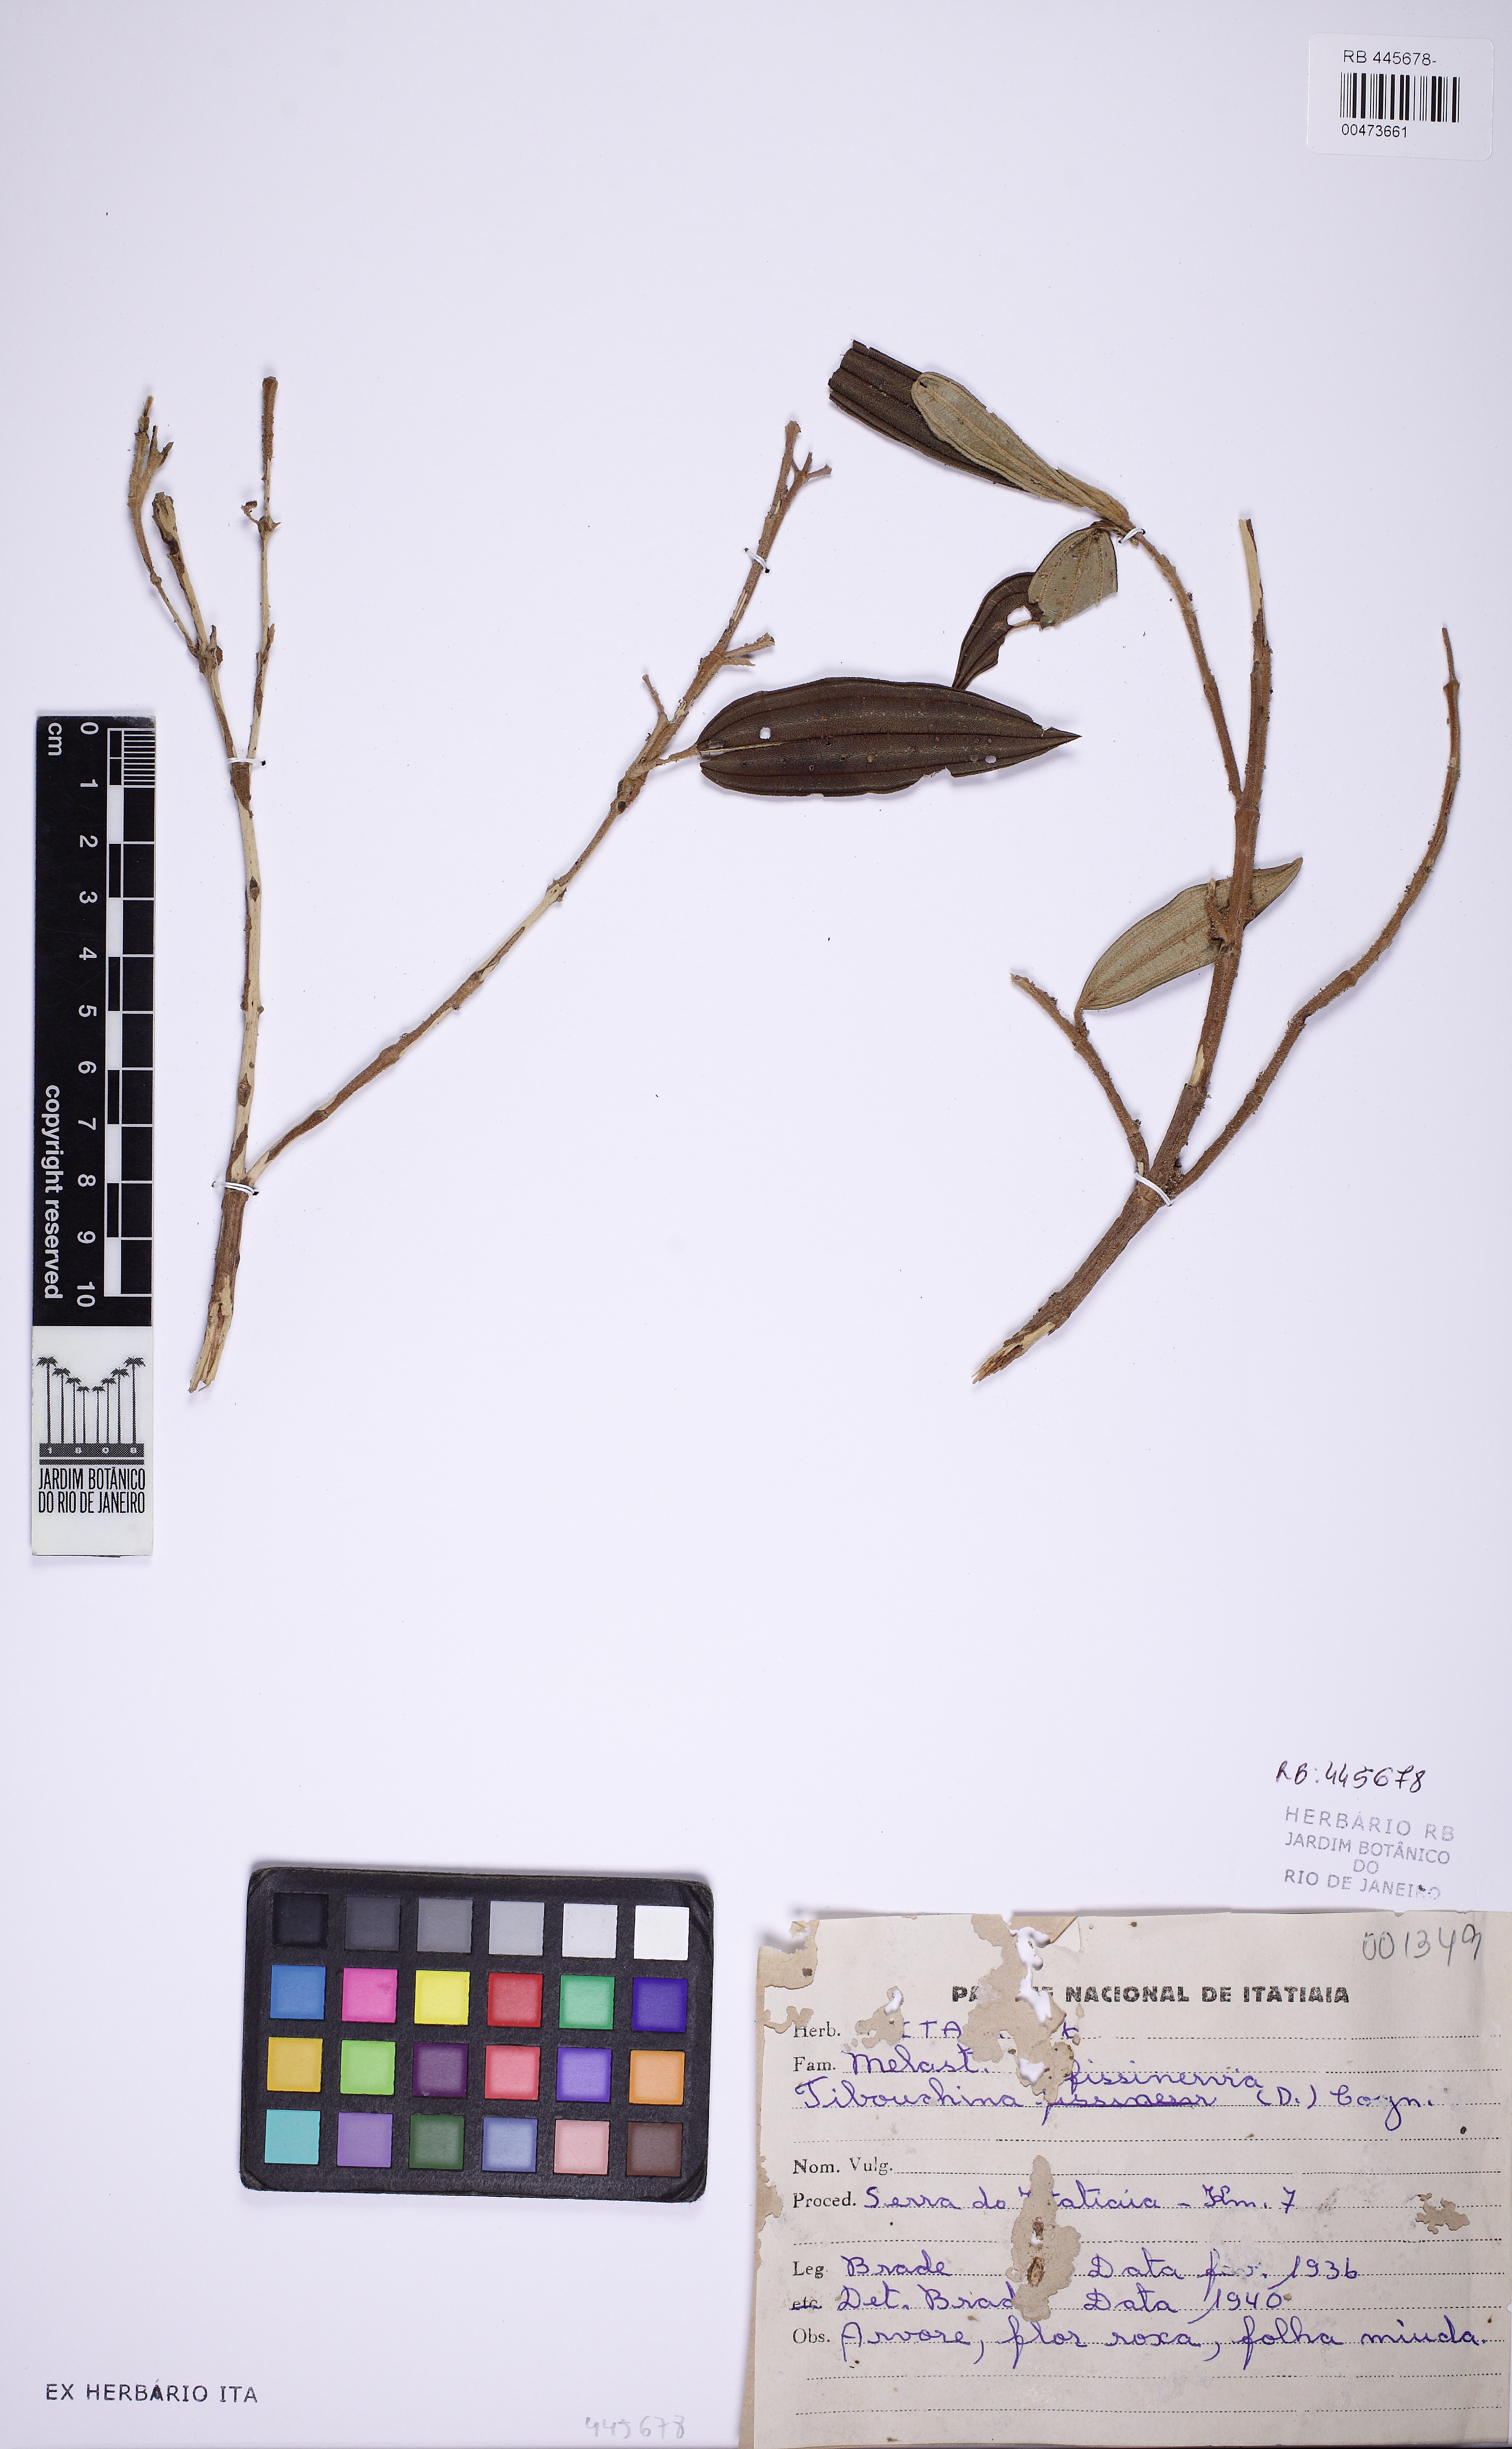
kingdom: Plantae
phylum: Tracheophyta
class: Magnoliopsida
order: Myrtales
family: Melastomataceae
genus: Pleroma
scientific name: Pleroma fissinervium
